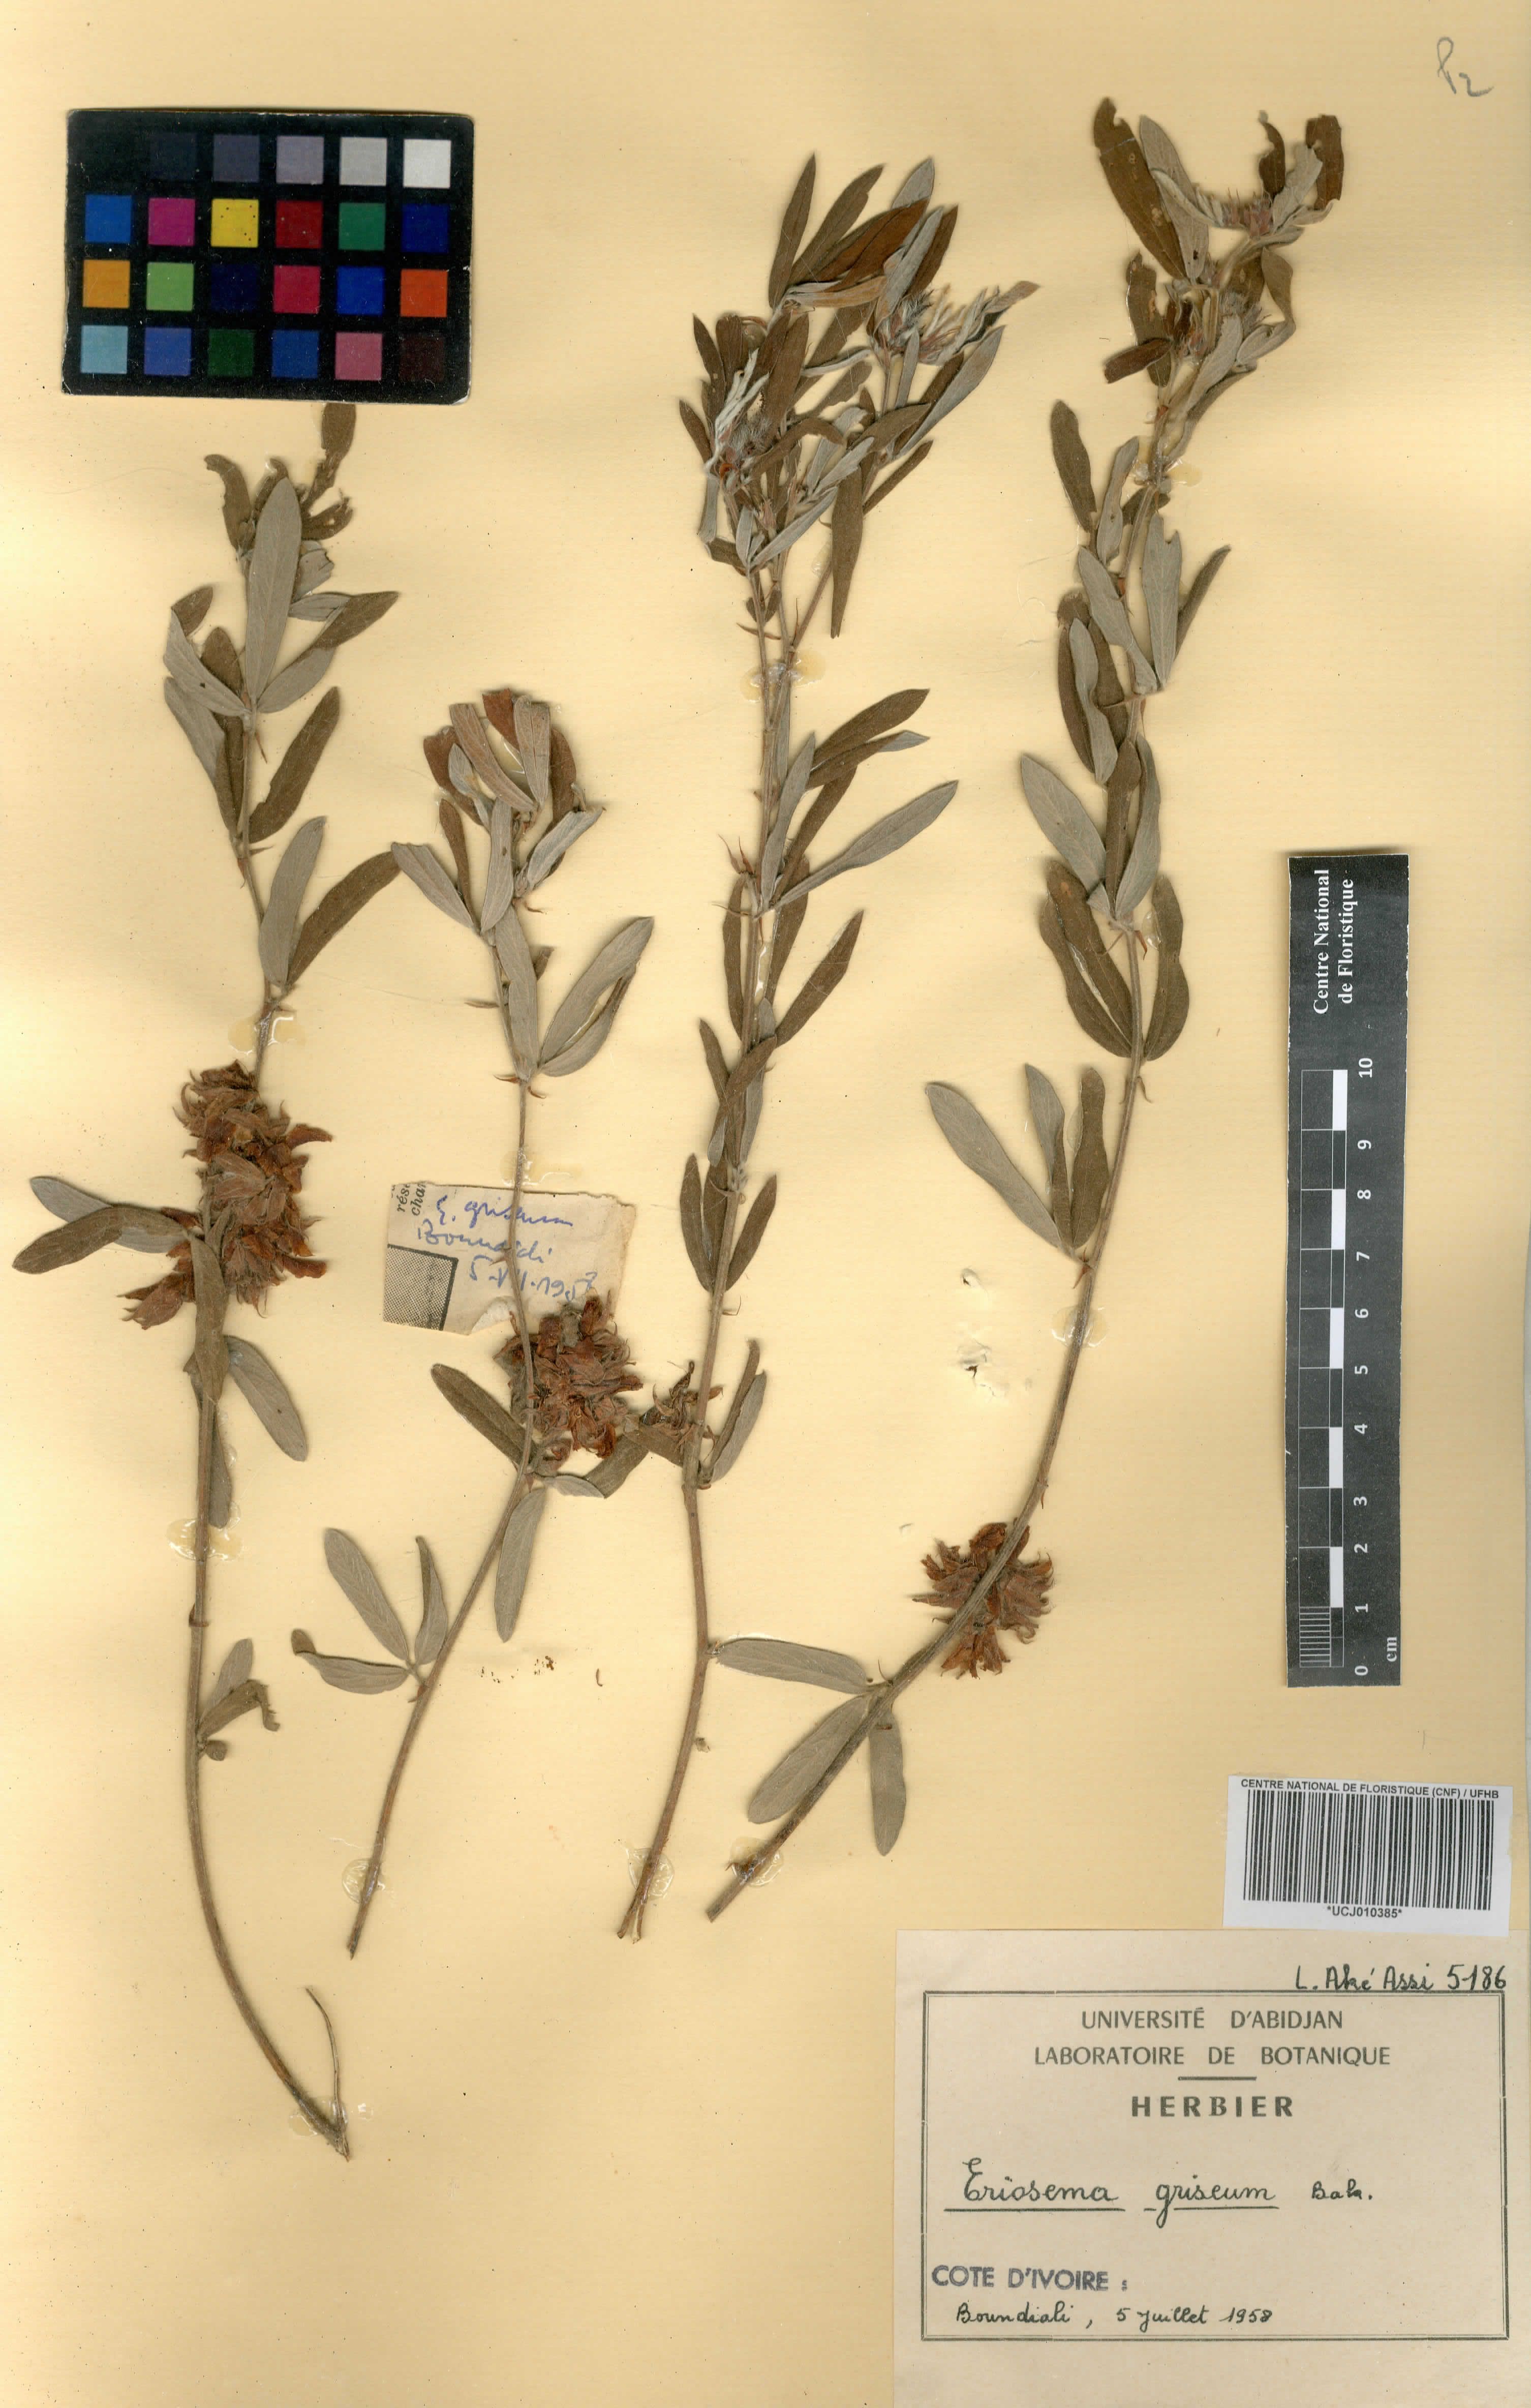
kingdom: Plantae
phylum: Tracheophyta
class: Magnoliopsida
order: Fabales
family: Fabaceae
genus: Eriosema
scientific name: Eriosema griseum
